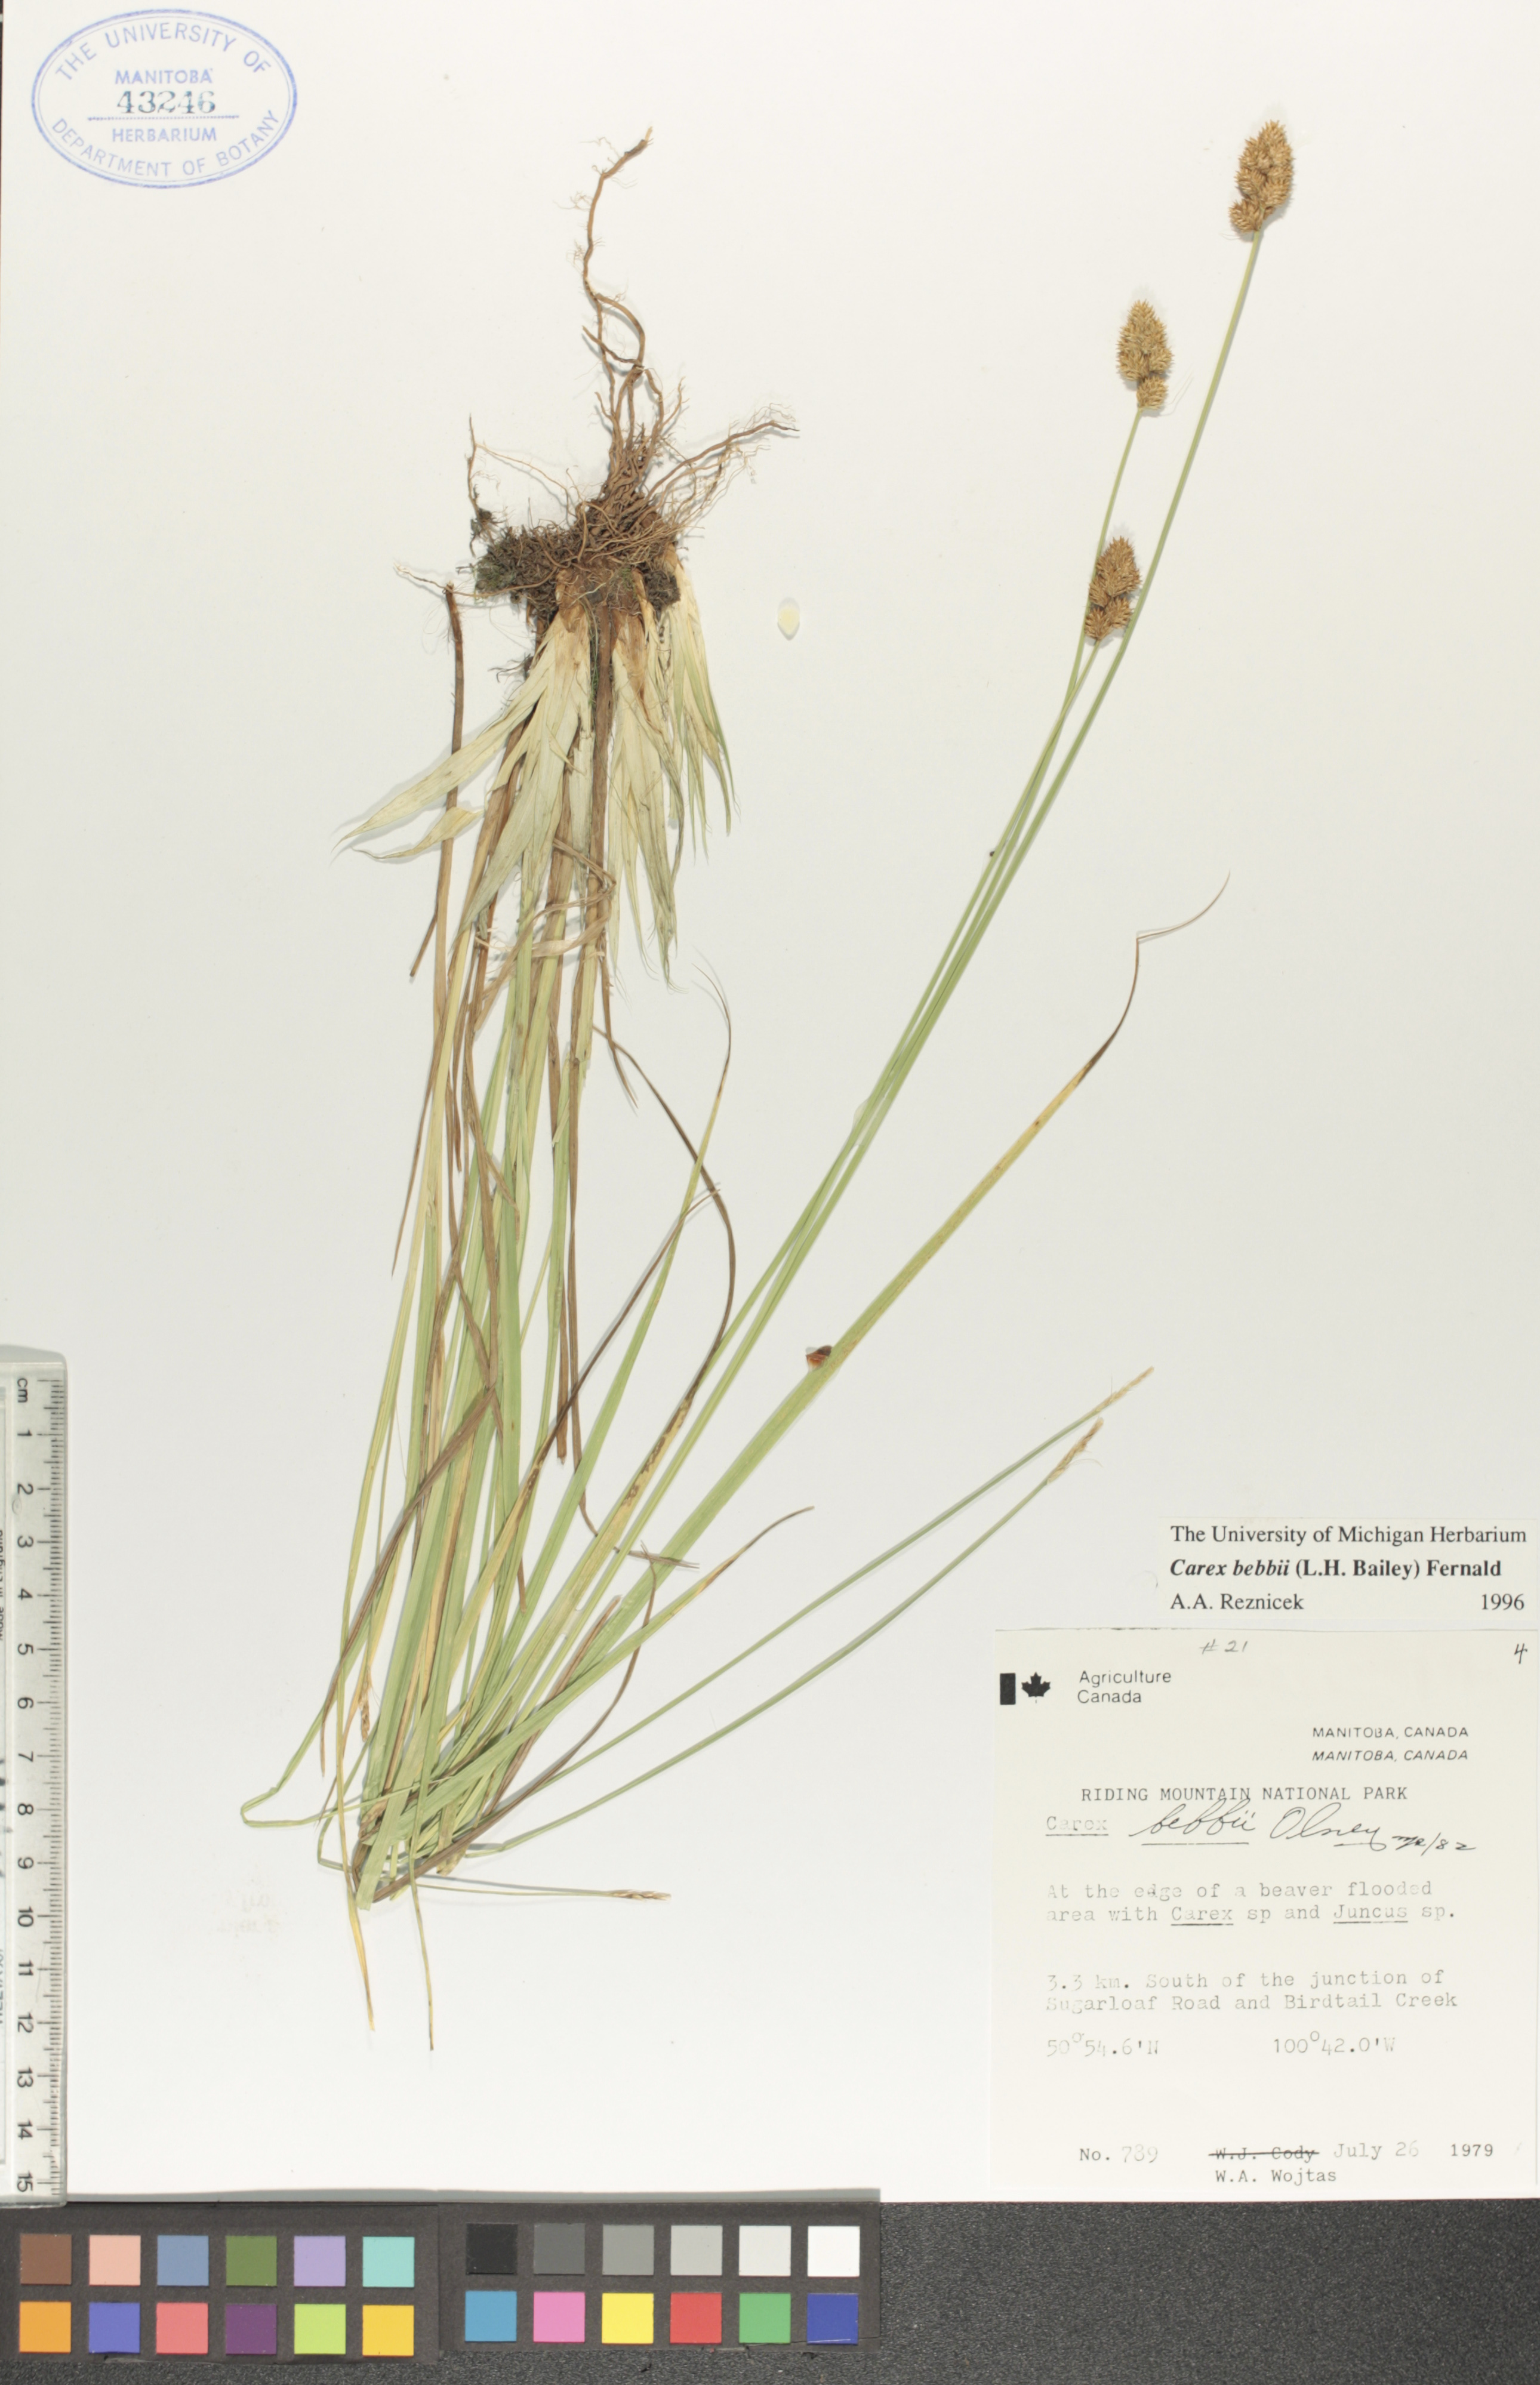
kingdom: Plantae
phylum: Tracheophyta
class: Liliopsida
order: Poales
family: Cyperaceae
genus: Carex
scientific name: Carex bebbii
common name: Bebb's sedge
